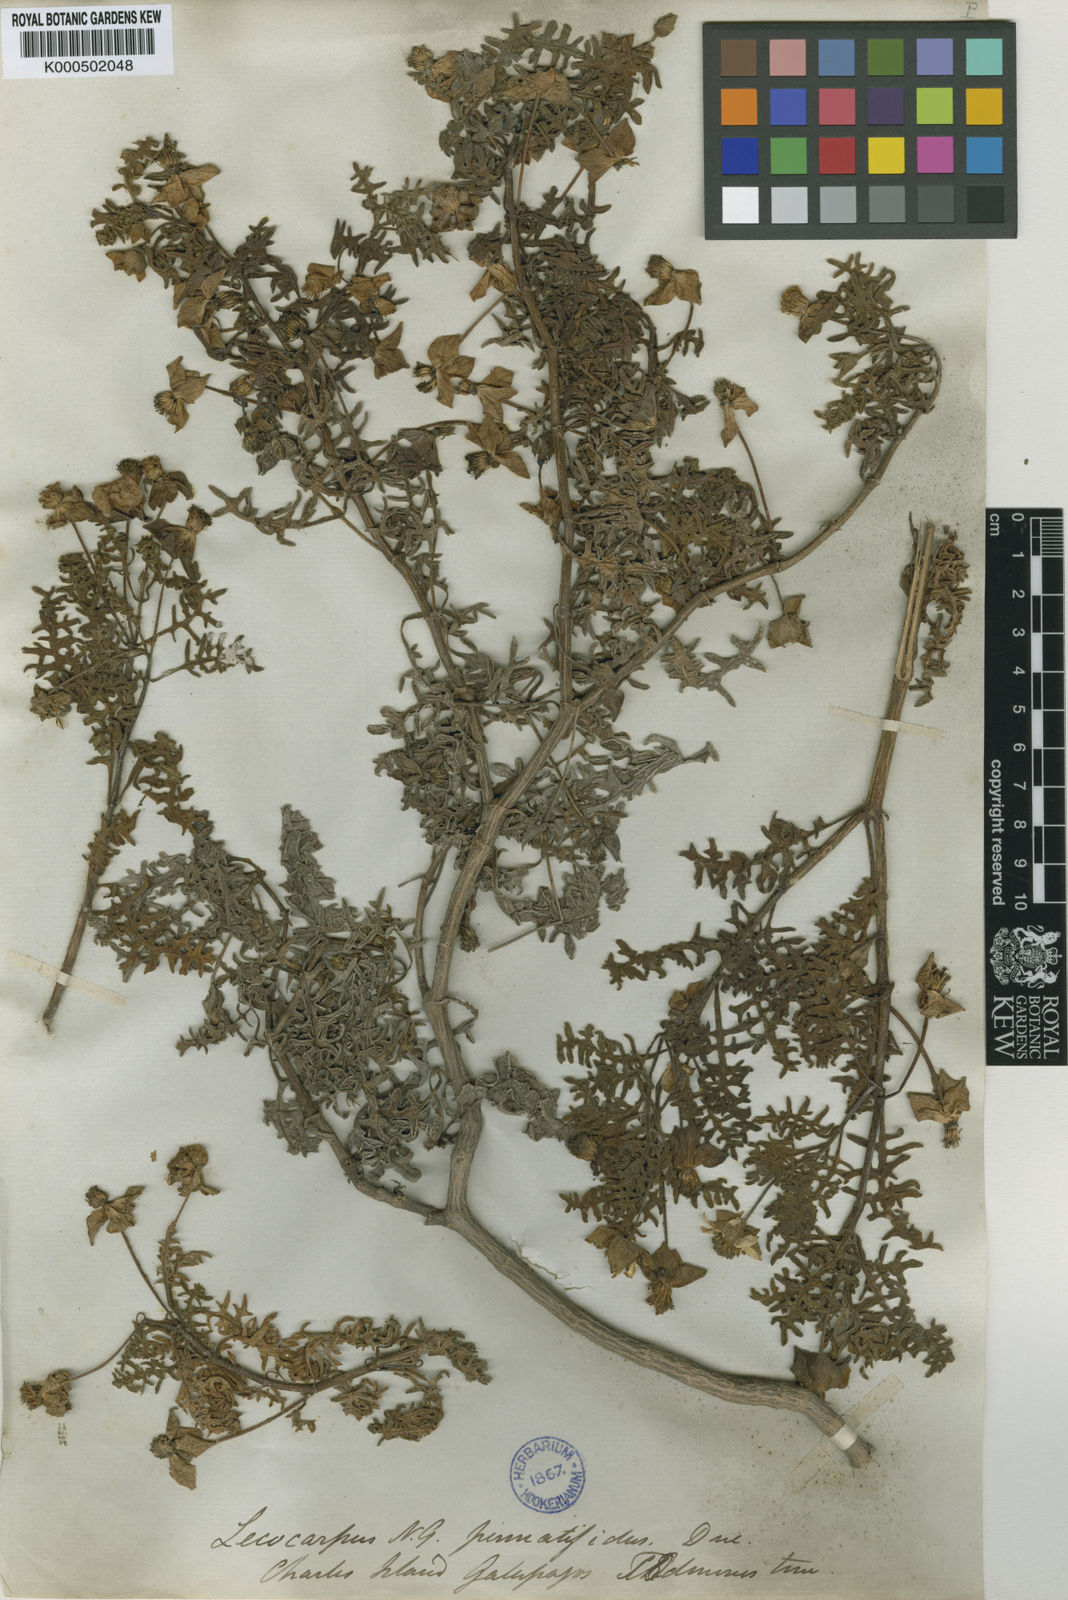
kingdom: Plantae
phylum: Tracheophyta
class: Magnoliopsida
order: Asterales
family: Asteraceae
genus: Lecocarpus
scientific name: Lecocarpus pinnatifidus
